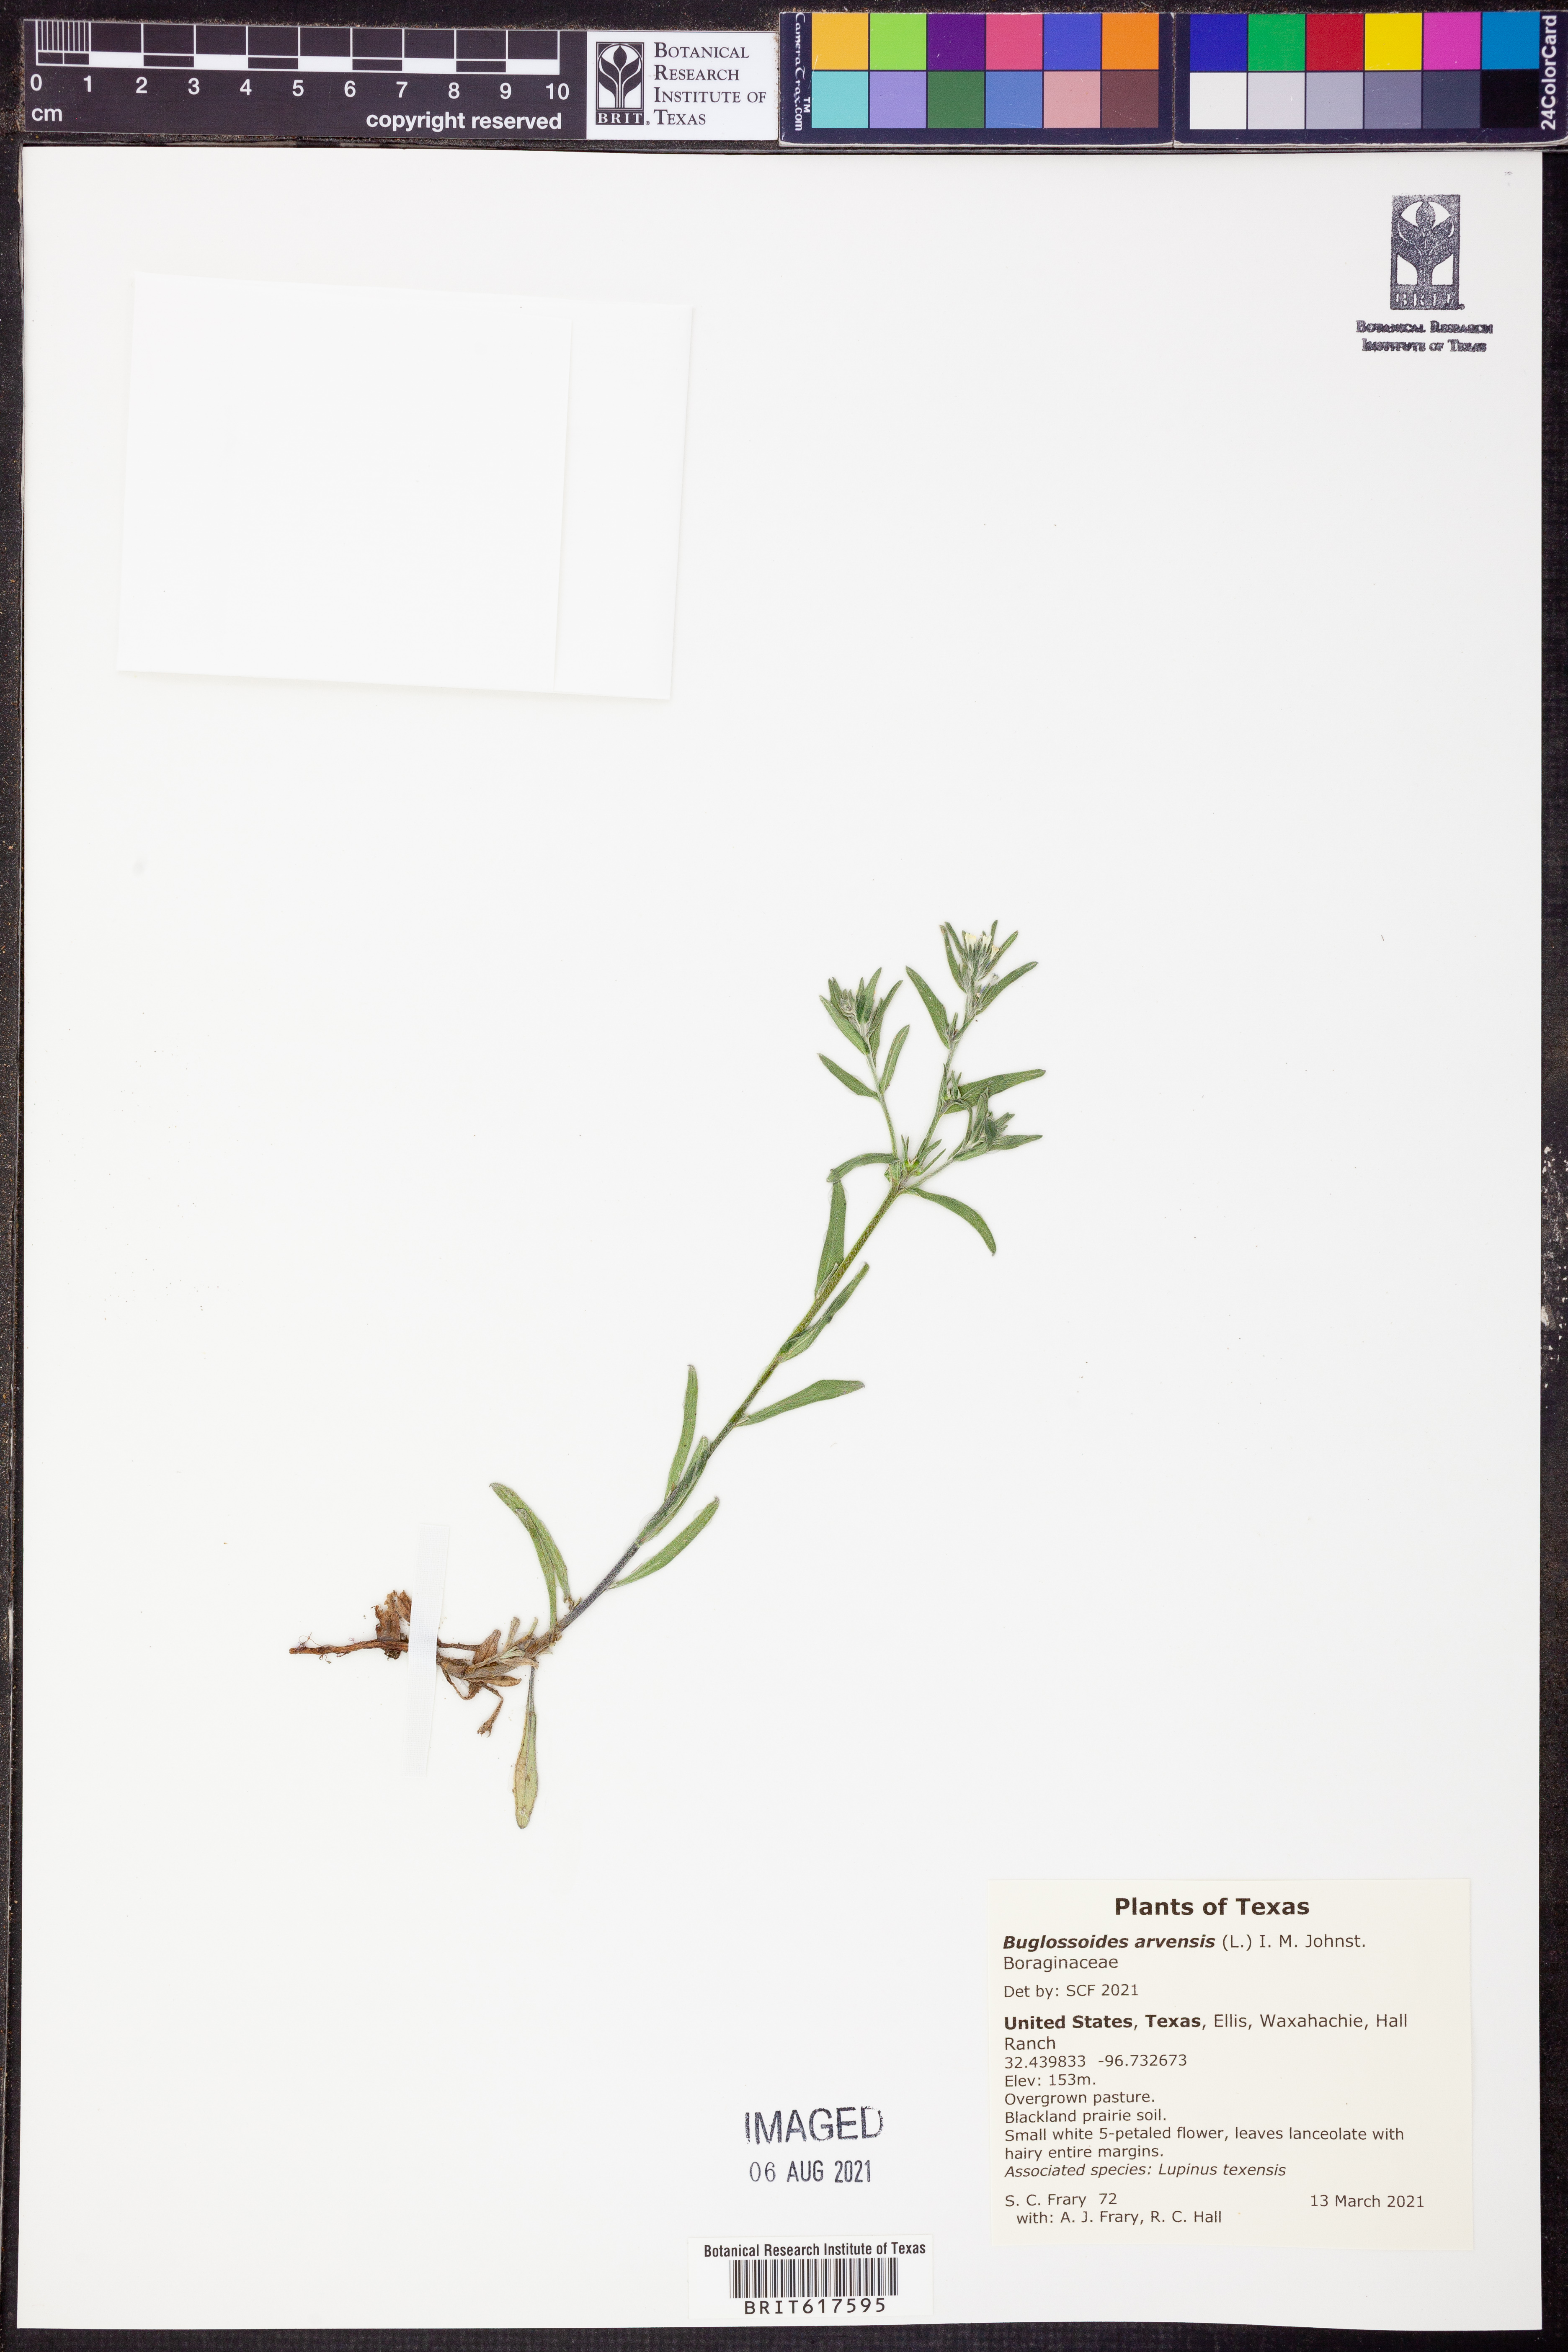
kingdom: Plantae
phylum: Tracheophyta
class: Magnoliopsida
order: Boraginales
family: Boraginaceae
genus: Buglossoides
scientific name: Buglossoides arvensis
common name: Corn gromwell
